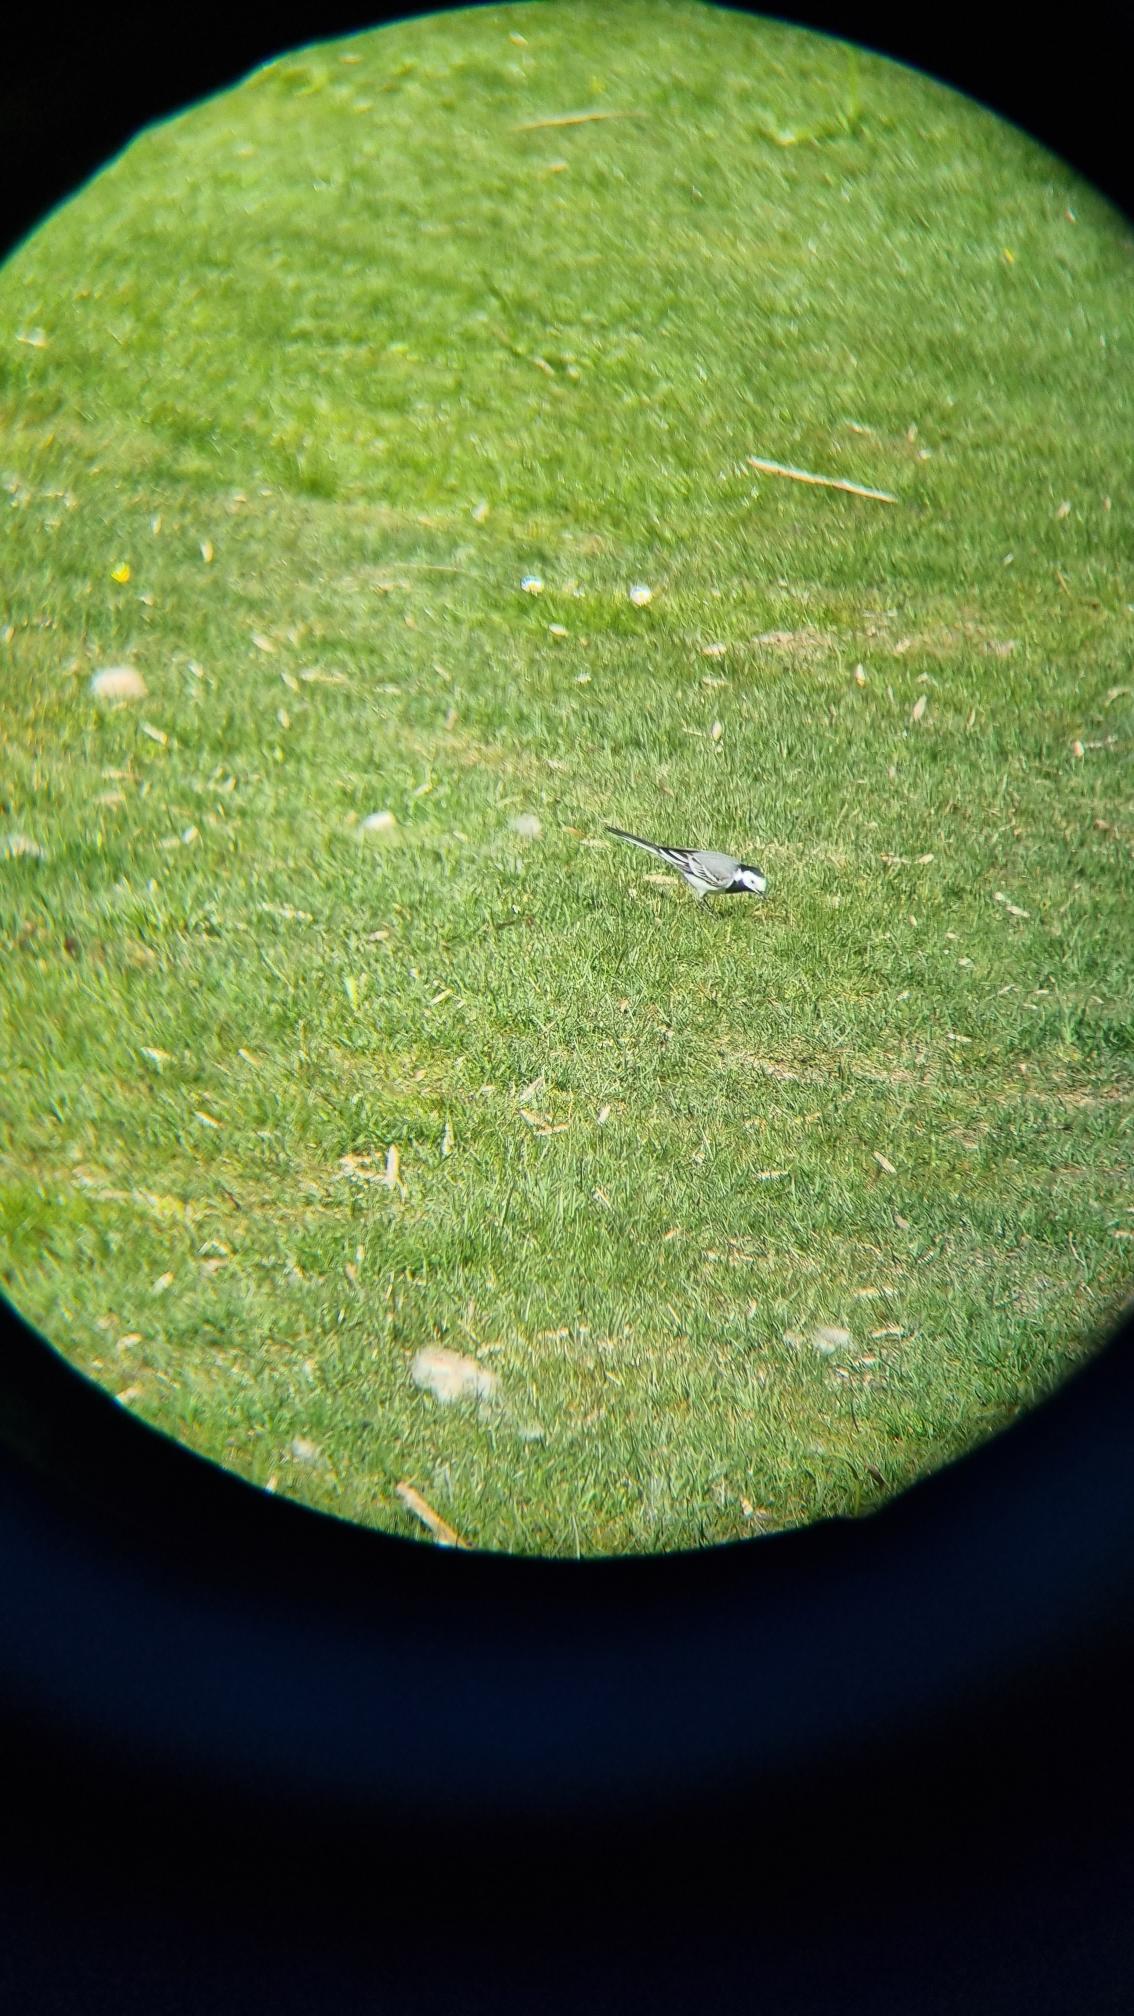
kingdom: Animalia
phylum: Chordata
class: Aves
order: Passeriformes
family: Motacillidae
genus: Motacilla
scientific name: Motacilla alba
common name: Hvid vipstjert
